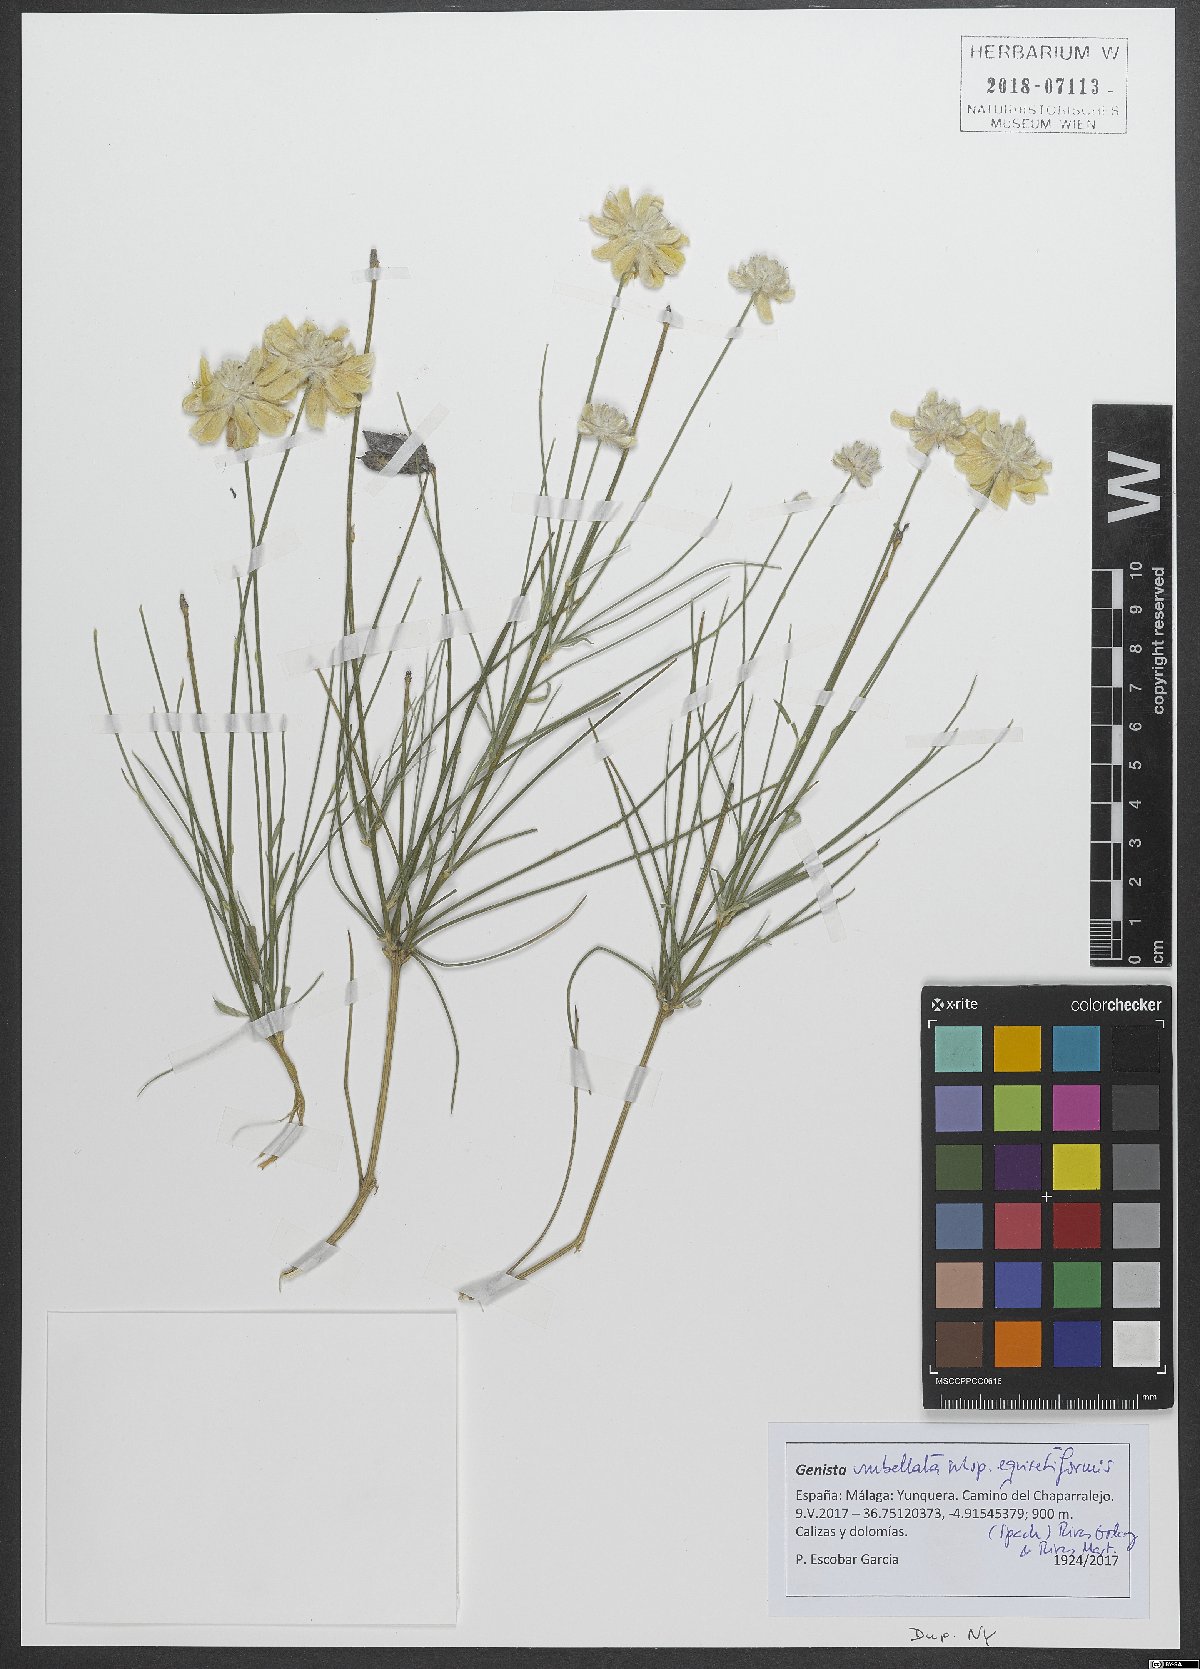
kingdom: Plantae
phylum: Tracheophyta
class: Magnoliopsida
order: Fabales
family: Fabaceae
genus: Genista
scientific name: Genista umbellata
